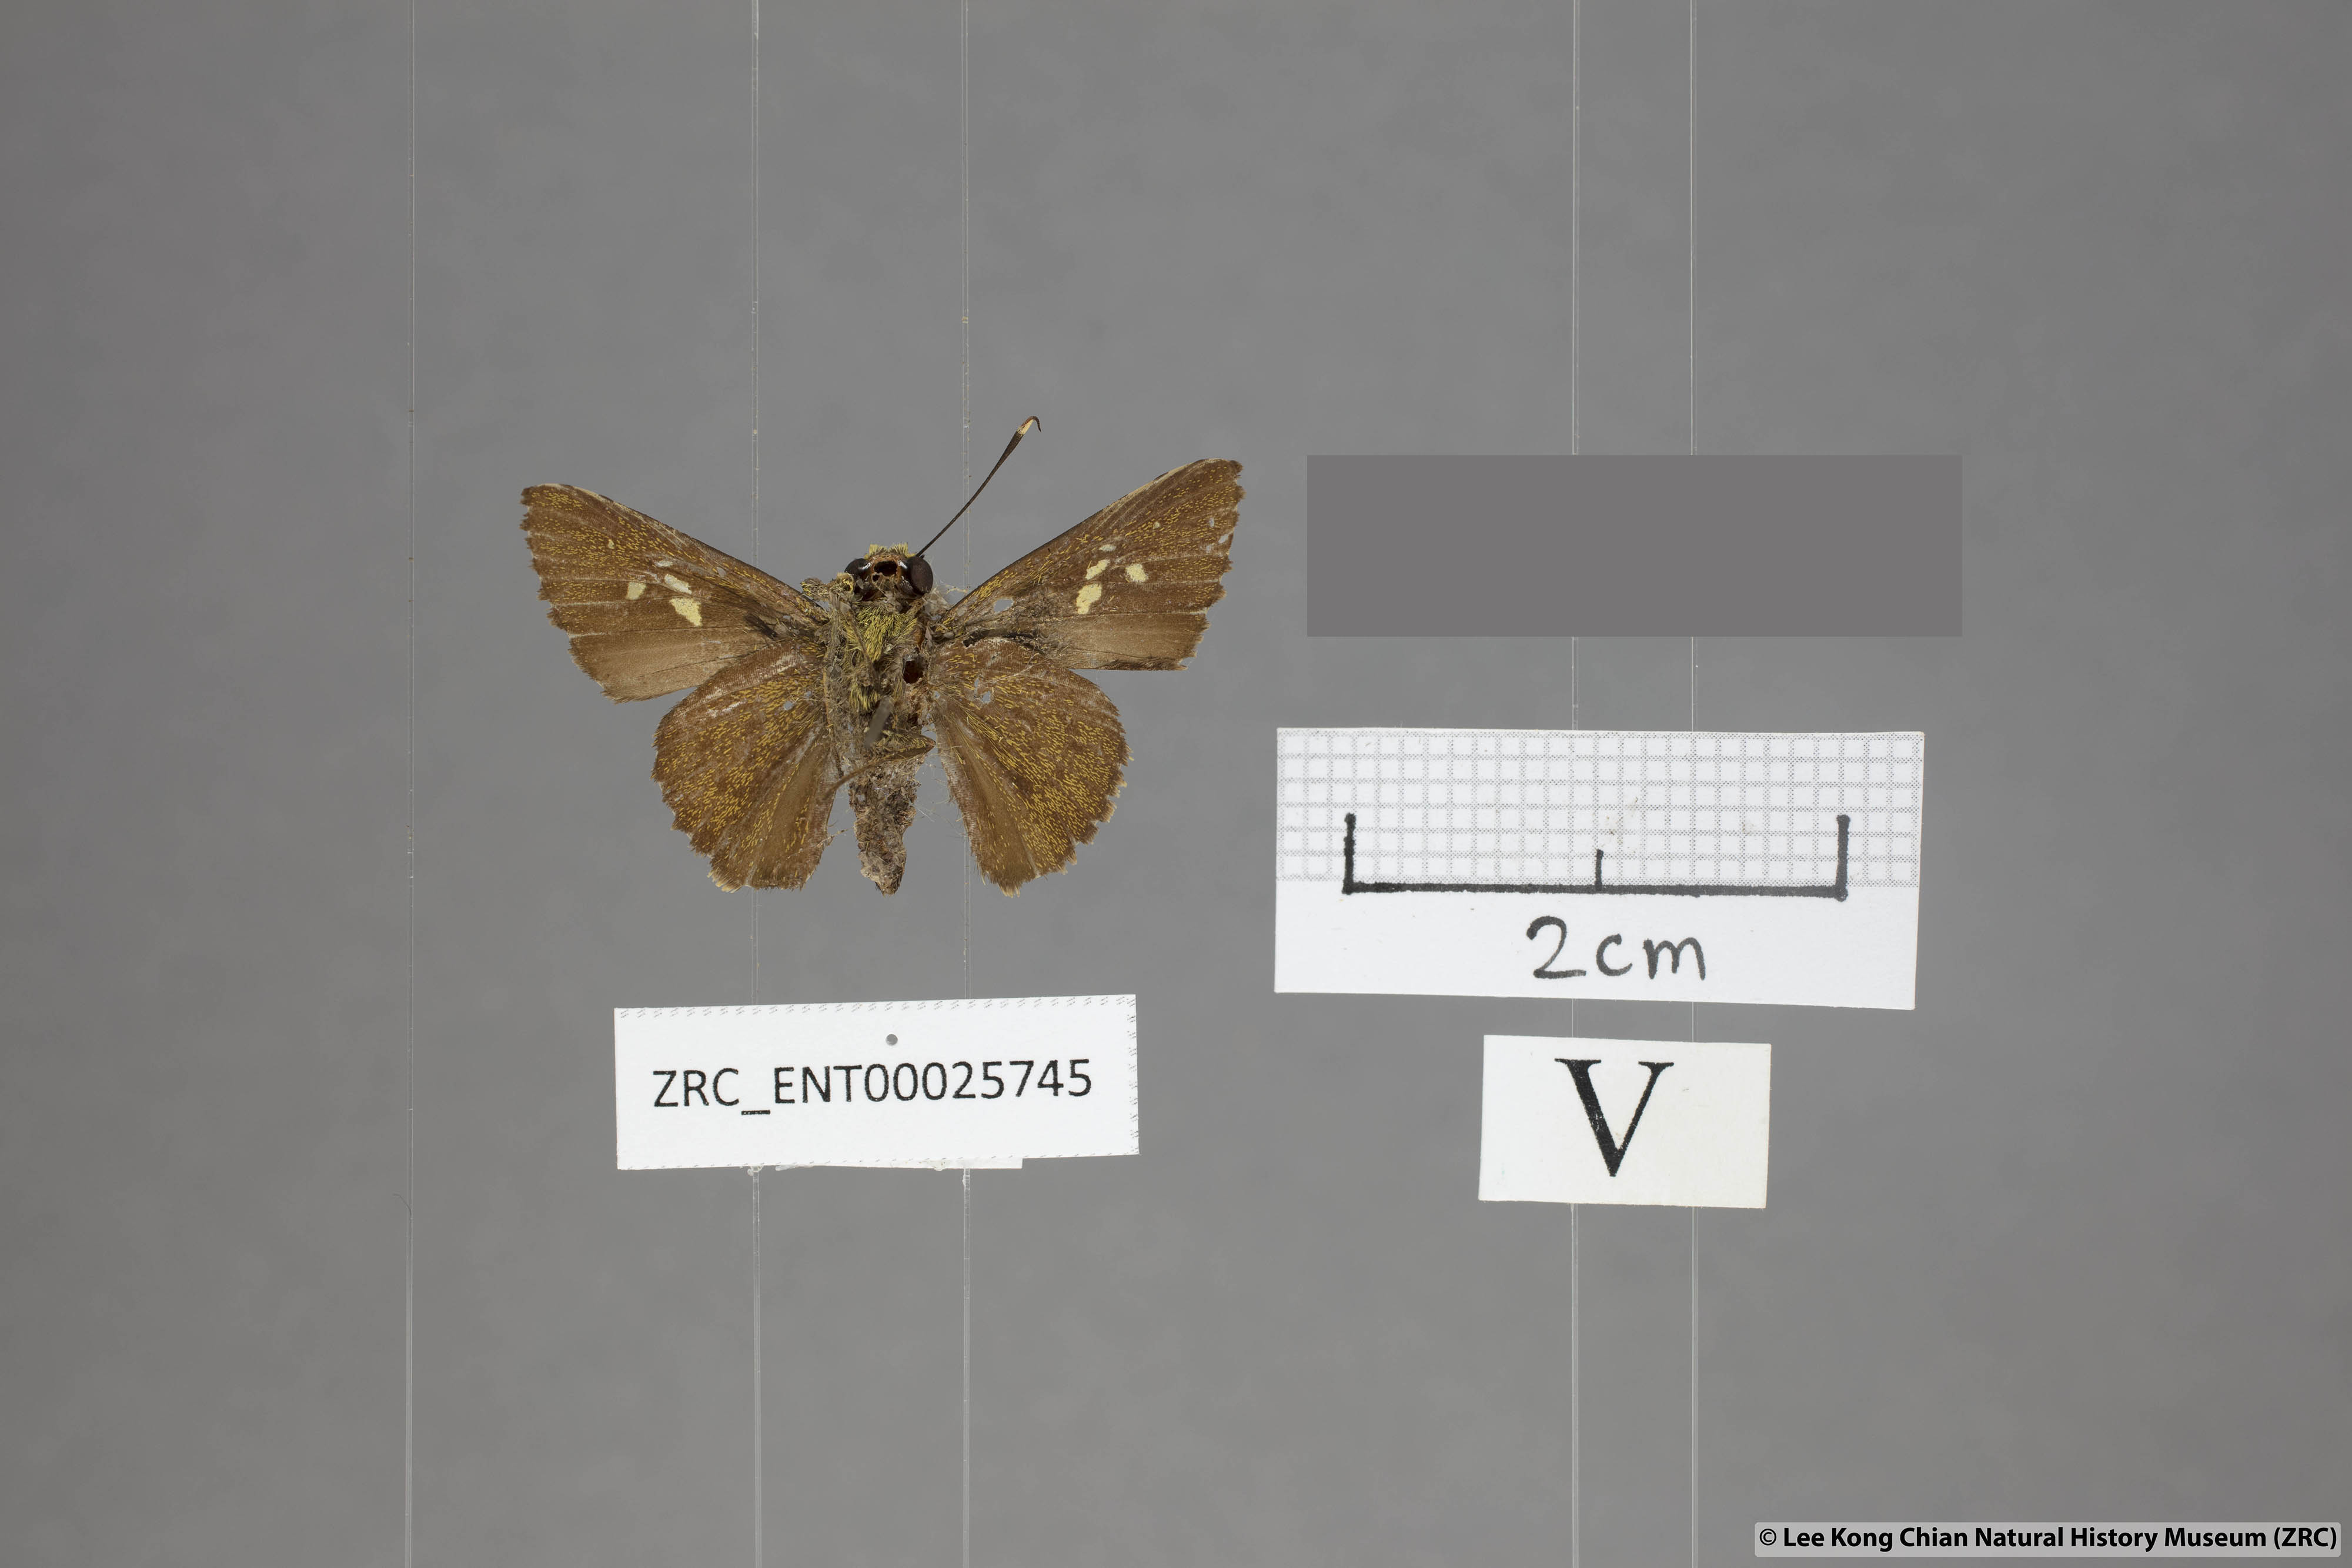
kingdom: Animalia
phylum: Arthropoda
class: Insecta
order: Lepidoptera
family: Hesperiidae
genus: Zographetus
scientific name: Zographetus rama
